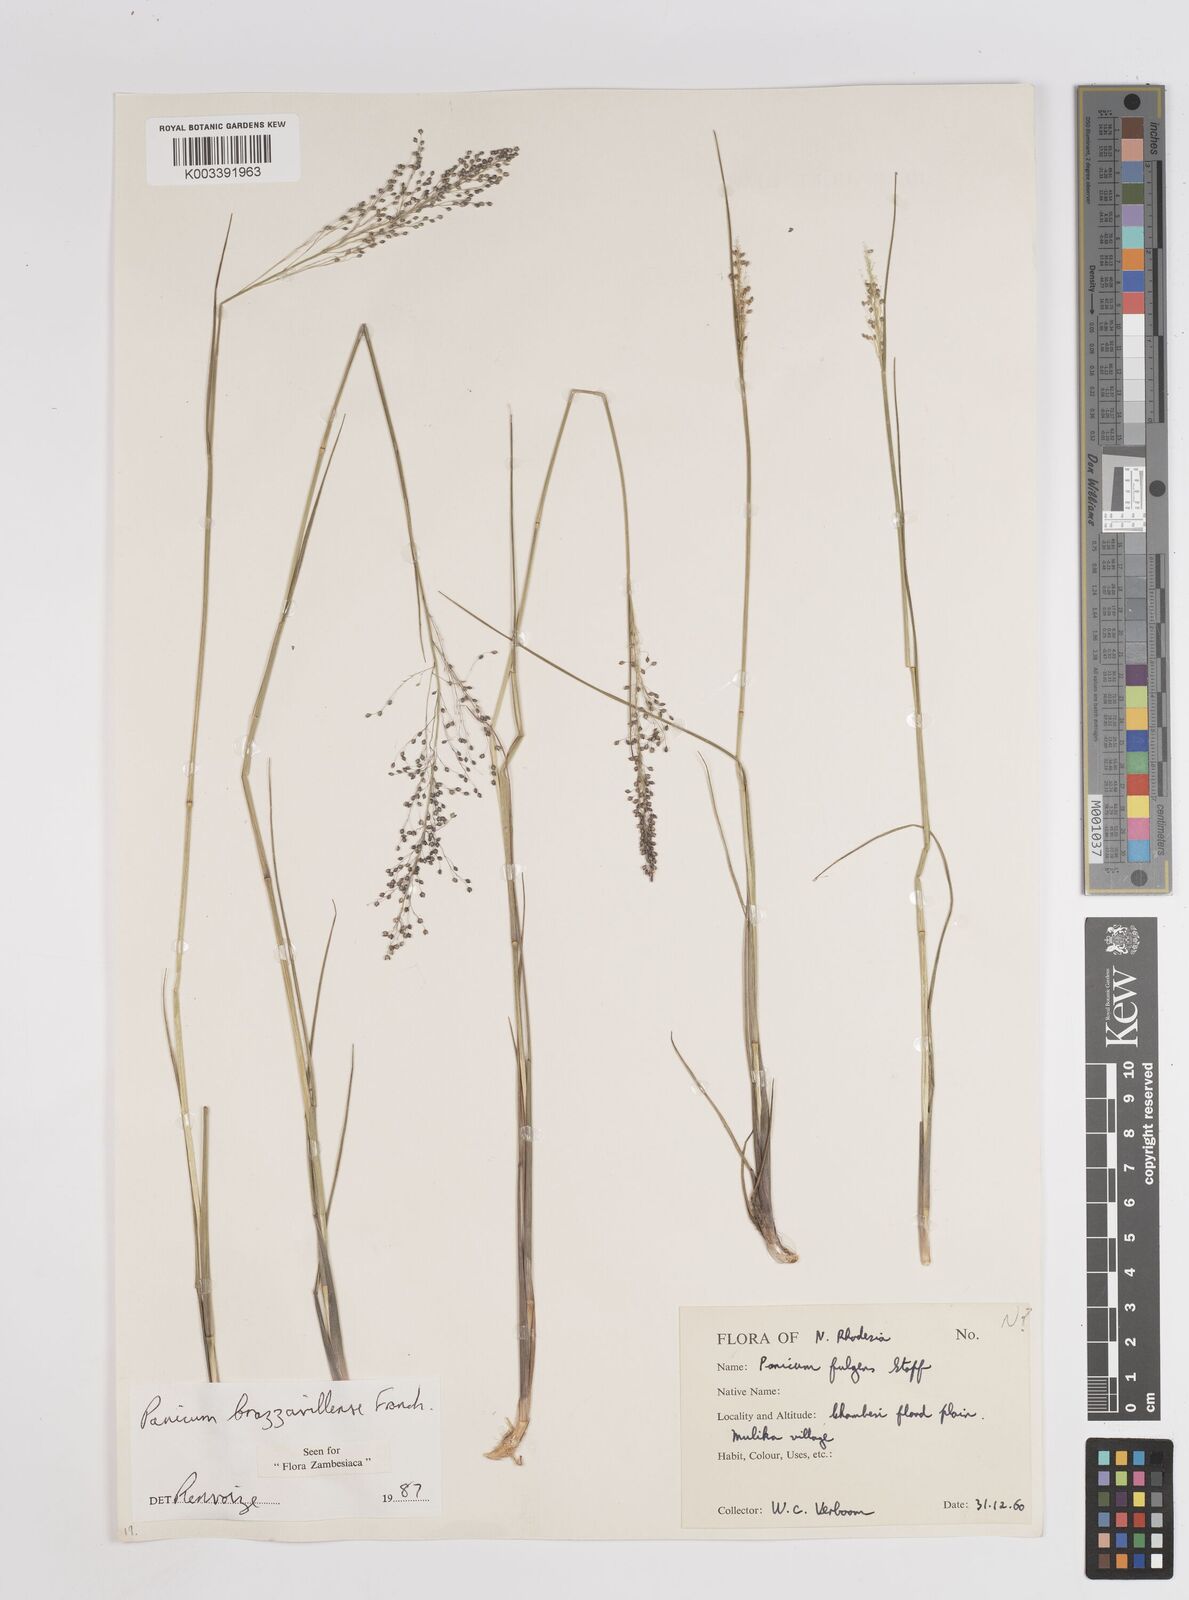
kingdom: Plantae
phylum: Tracheophyta
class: Liliopsida
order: Poales
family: Poaceae
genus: Trichanthecium
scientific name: Trichanthecium brazzavillense
